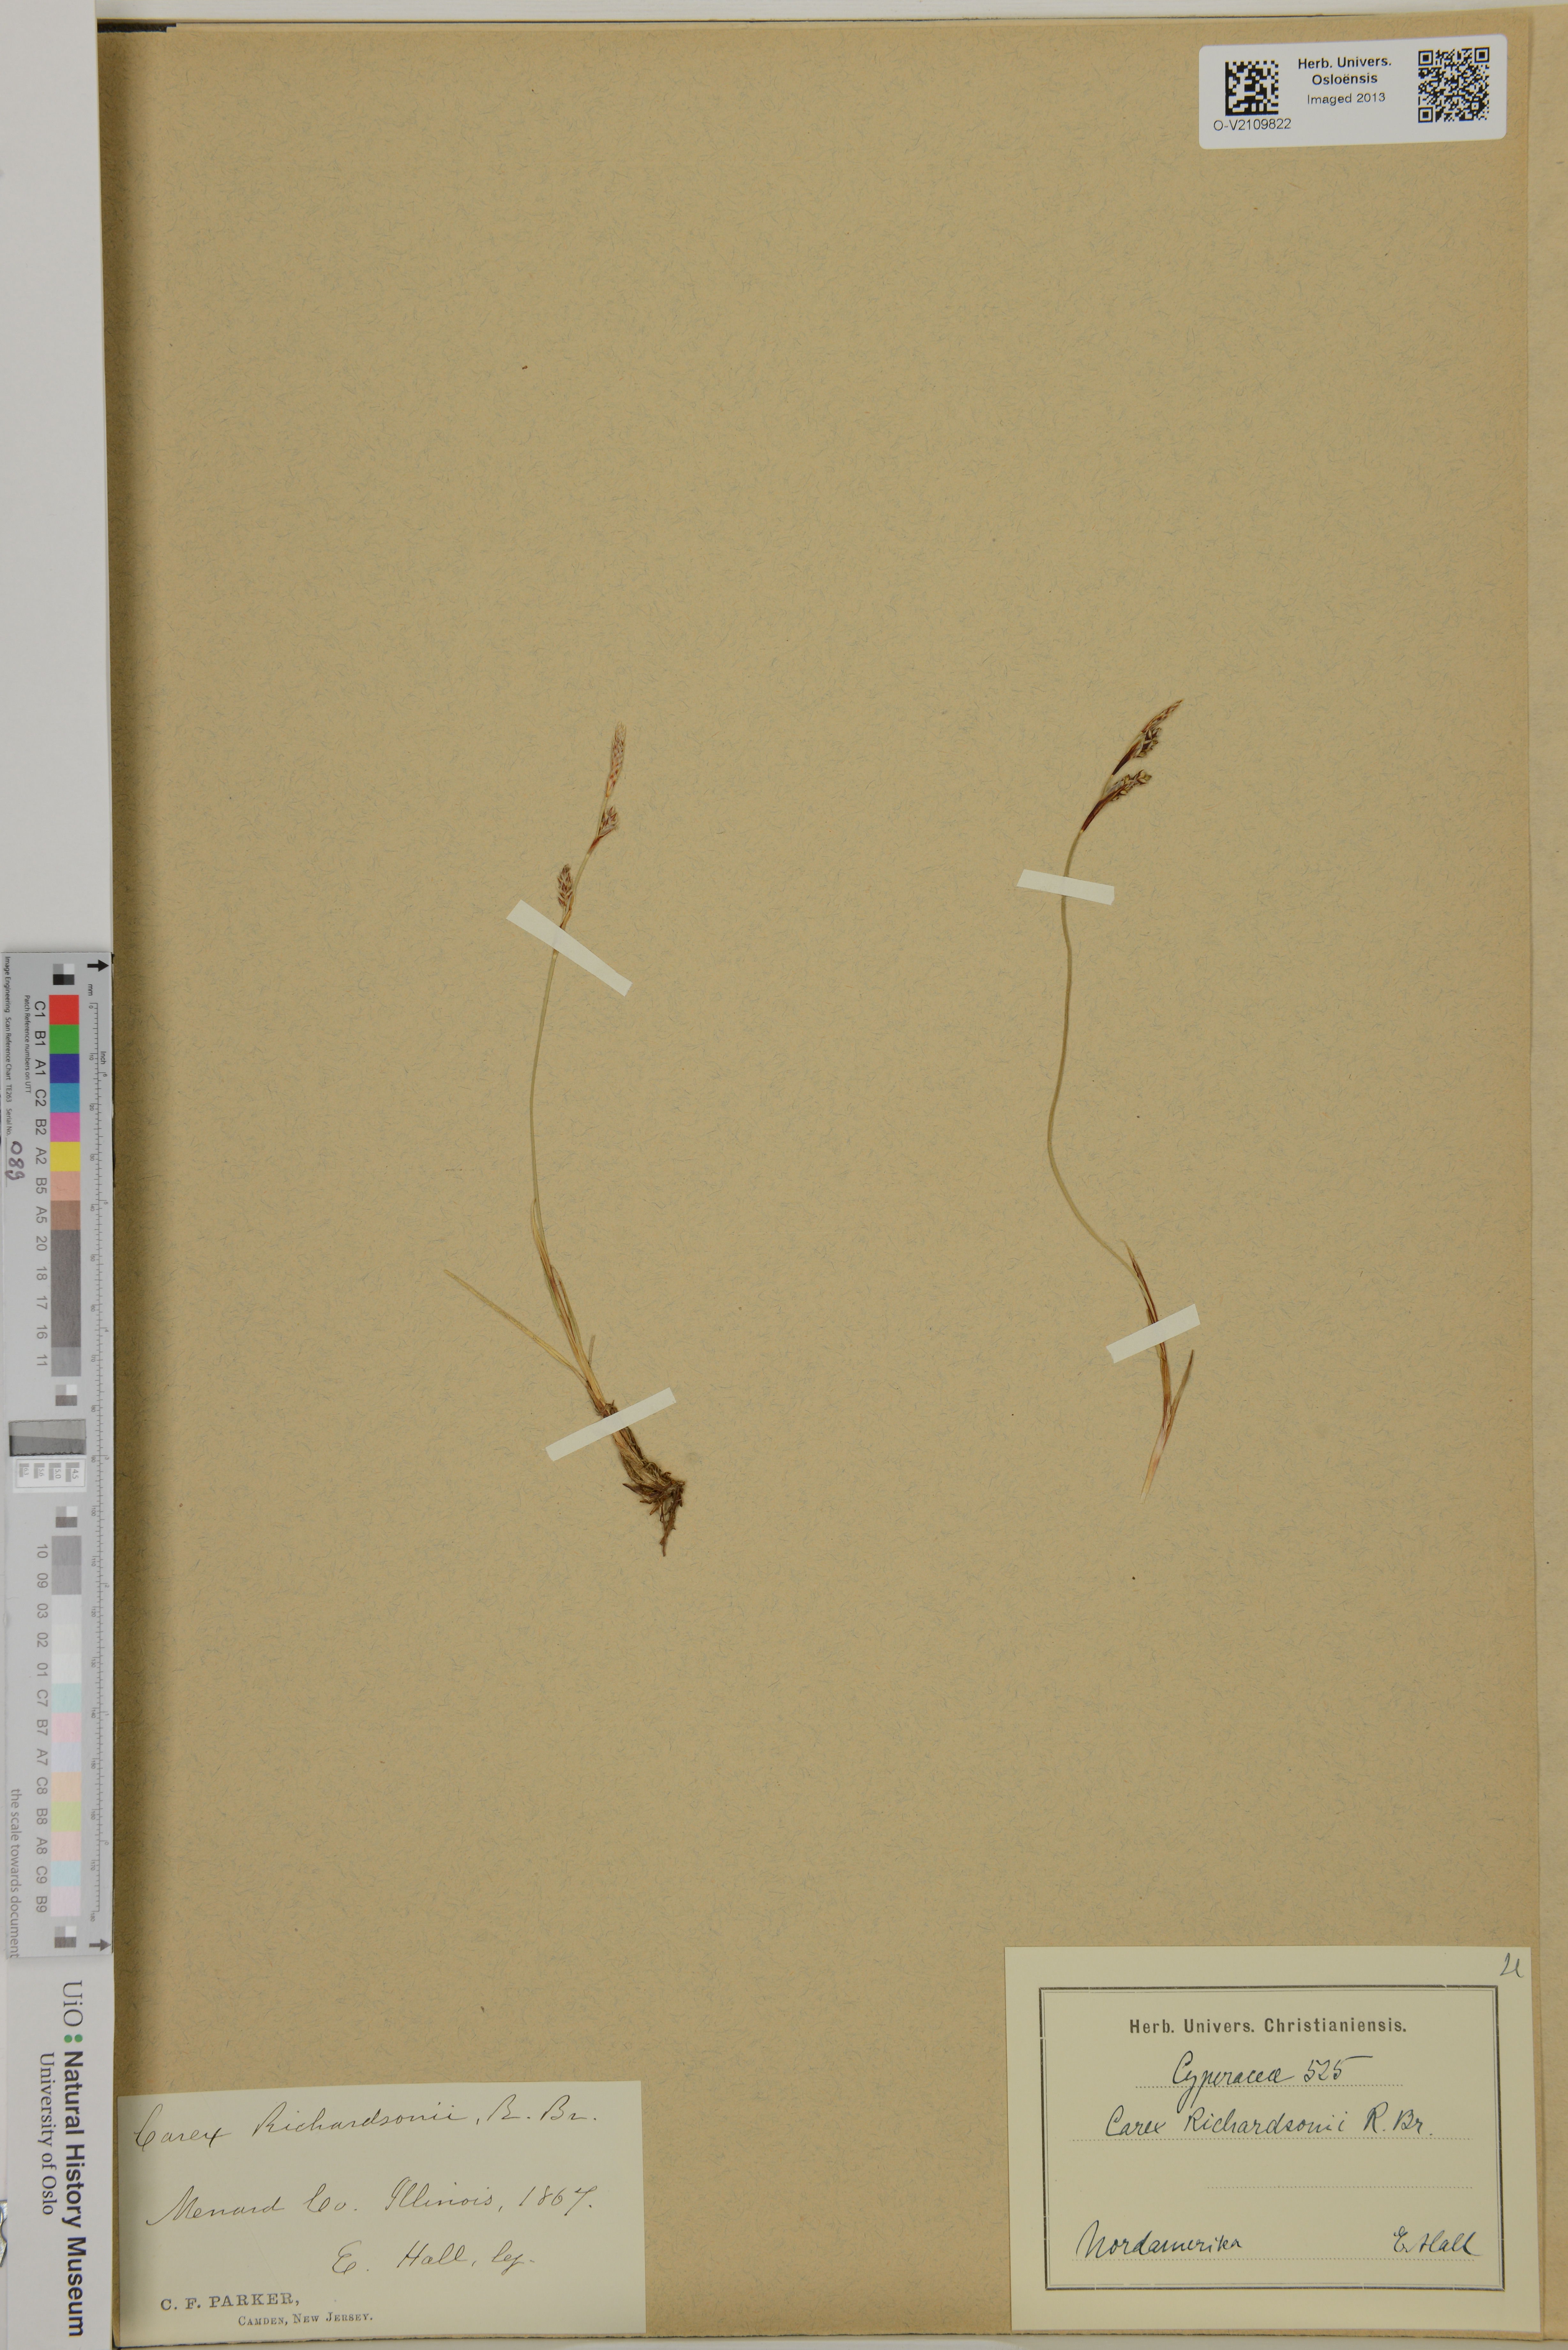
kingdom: Plantae
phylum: Tracheophyta
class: Liliopsida
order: Poales
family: Cyperaceae
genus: Carex
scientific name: Carex richardsonii
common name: Prairie hummock sedge
